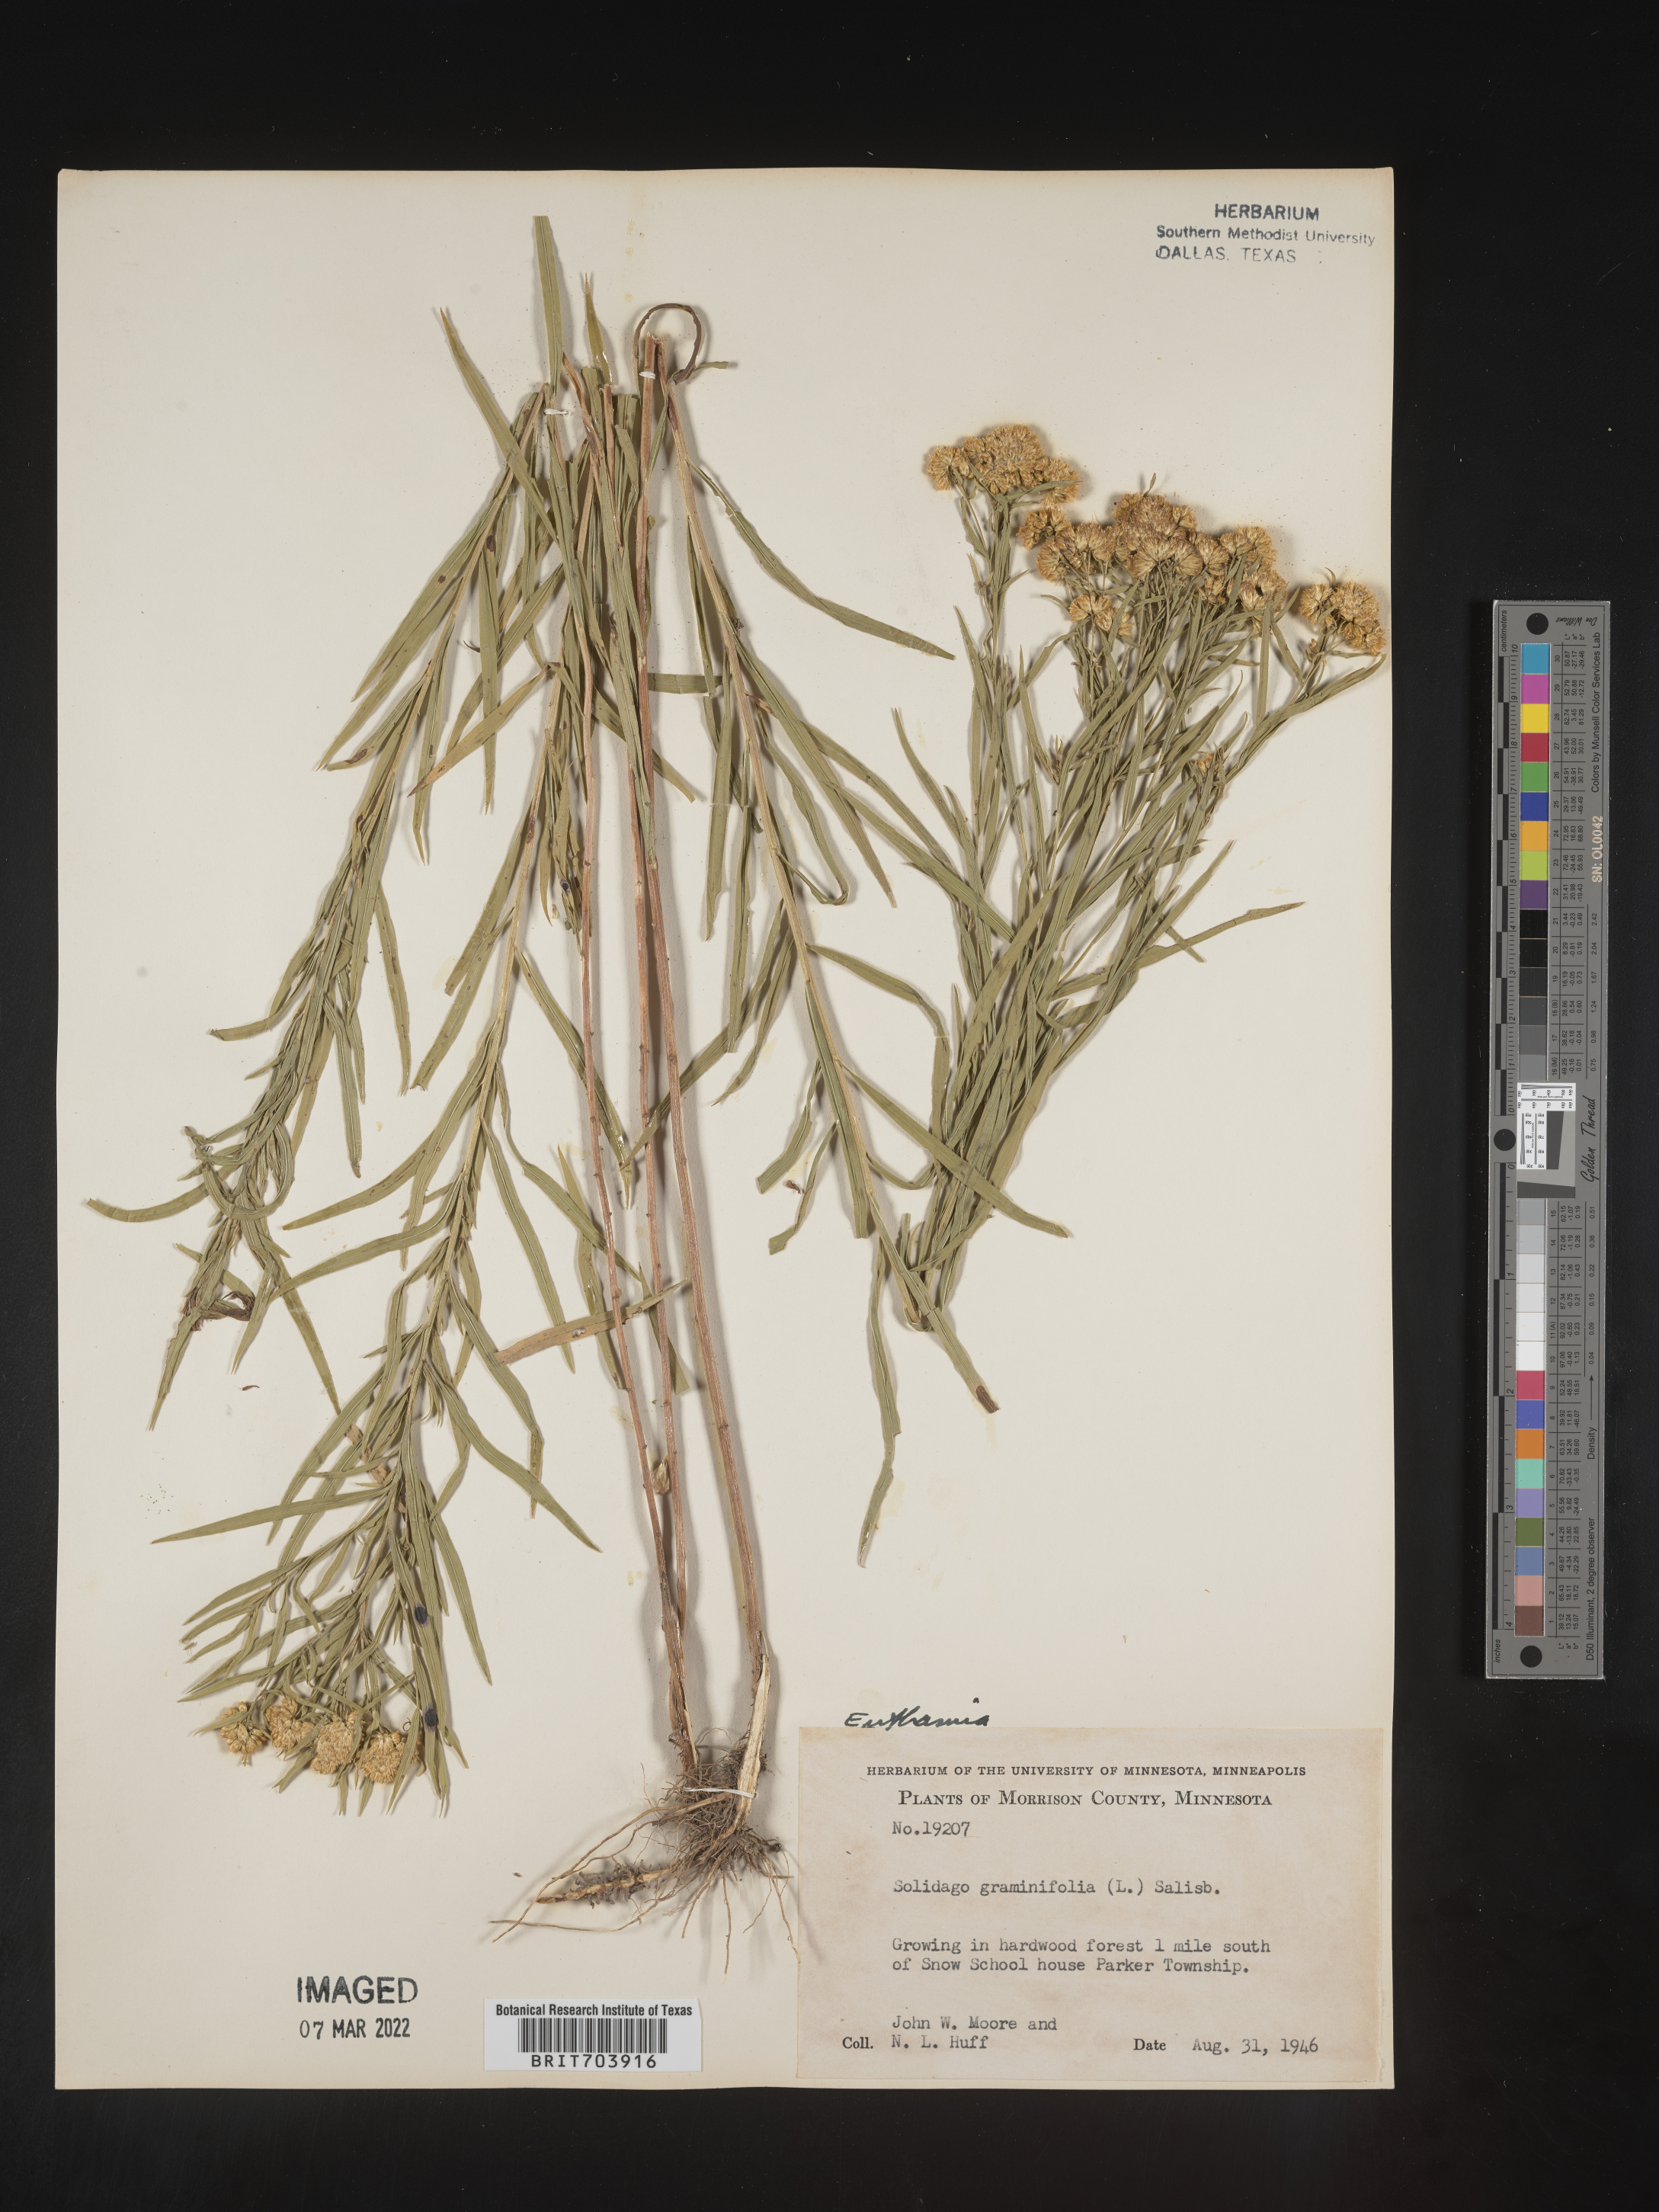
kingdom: Plantae
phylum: Tracheophyta
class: Magnoliopsida
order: Asterales
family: Asteraceae
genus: Euthamia
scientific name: Euthamia graminifolia
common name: Common goldentop
